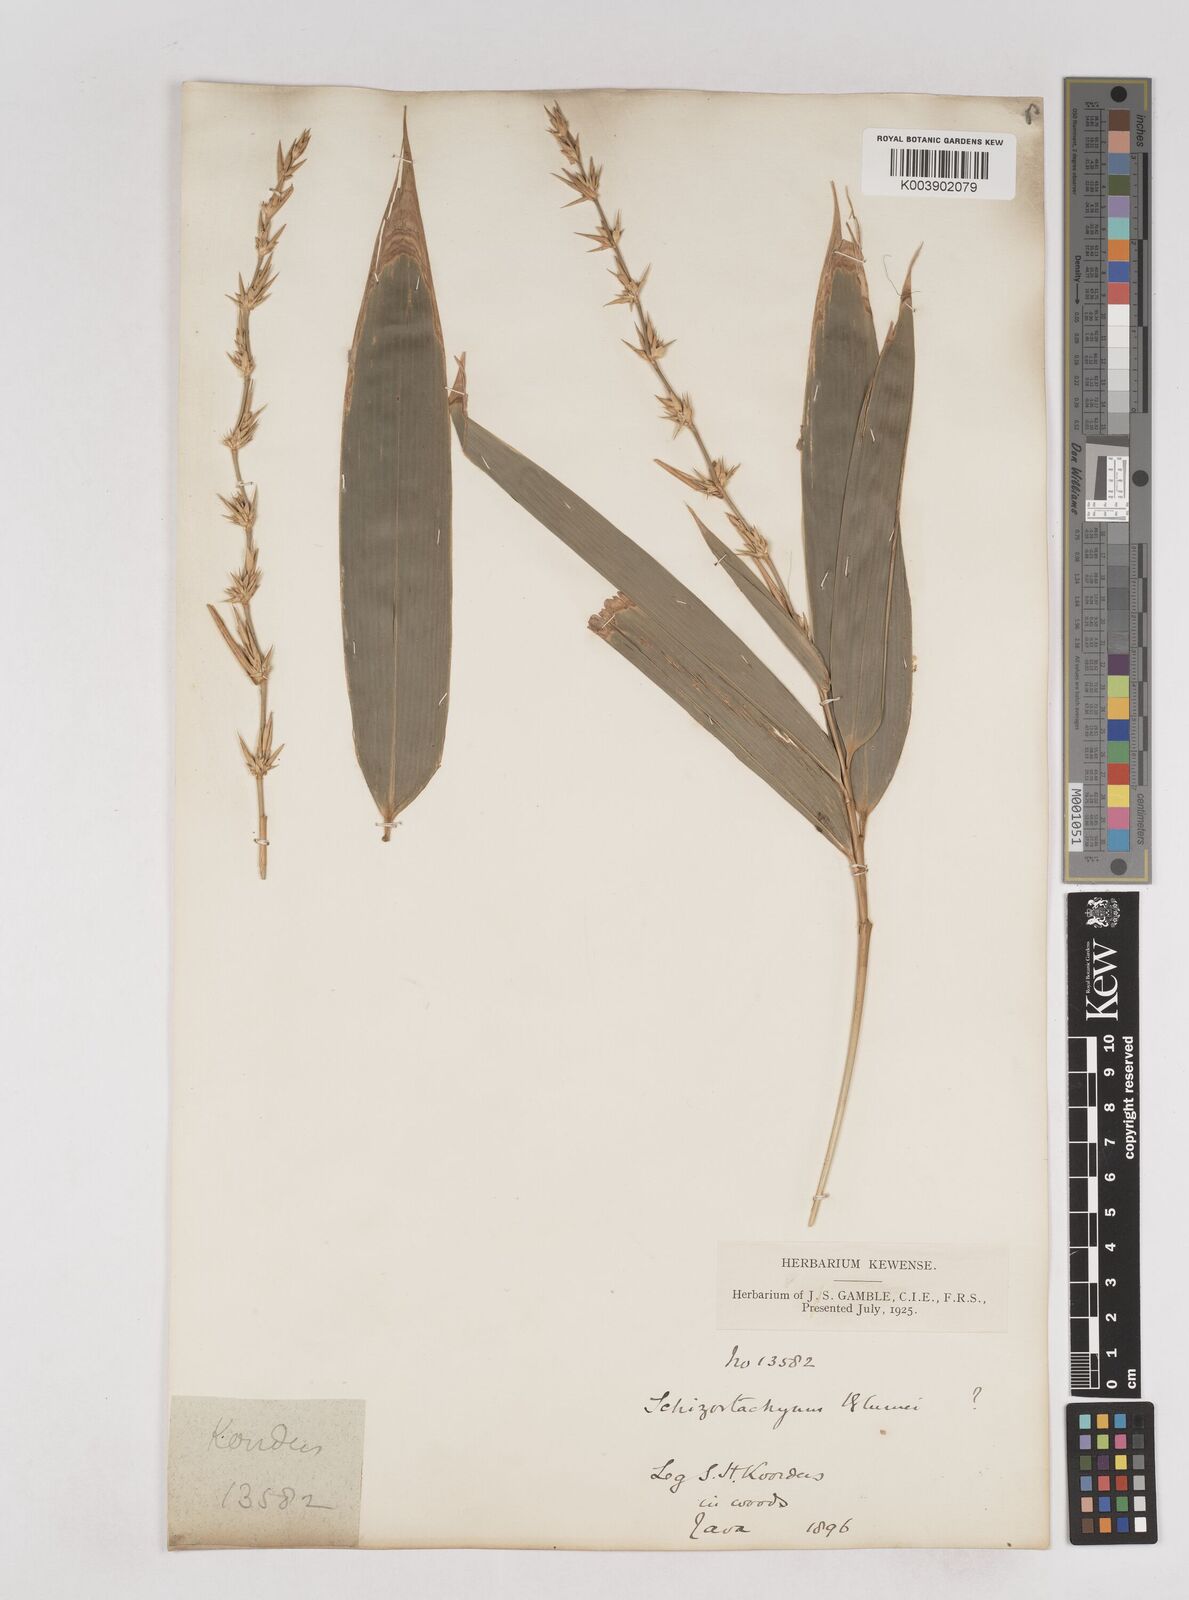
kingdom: Plantae
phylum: Tracheophyta
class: Liliopsida
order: Poales
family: Poaceae
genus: Schizostachyum
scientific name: Schizostachyum
